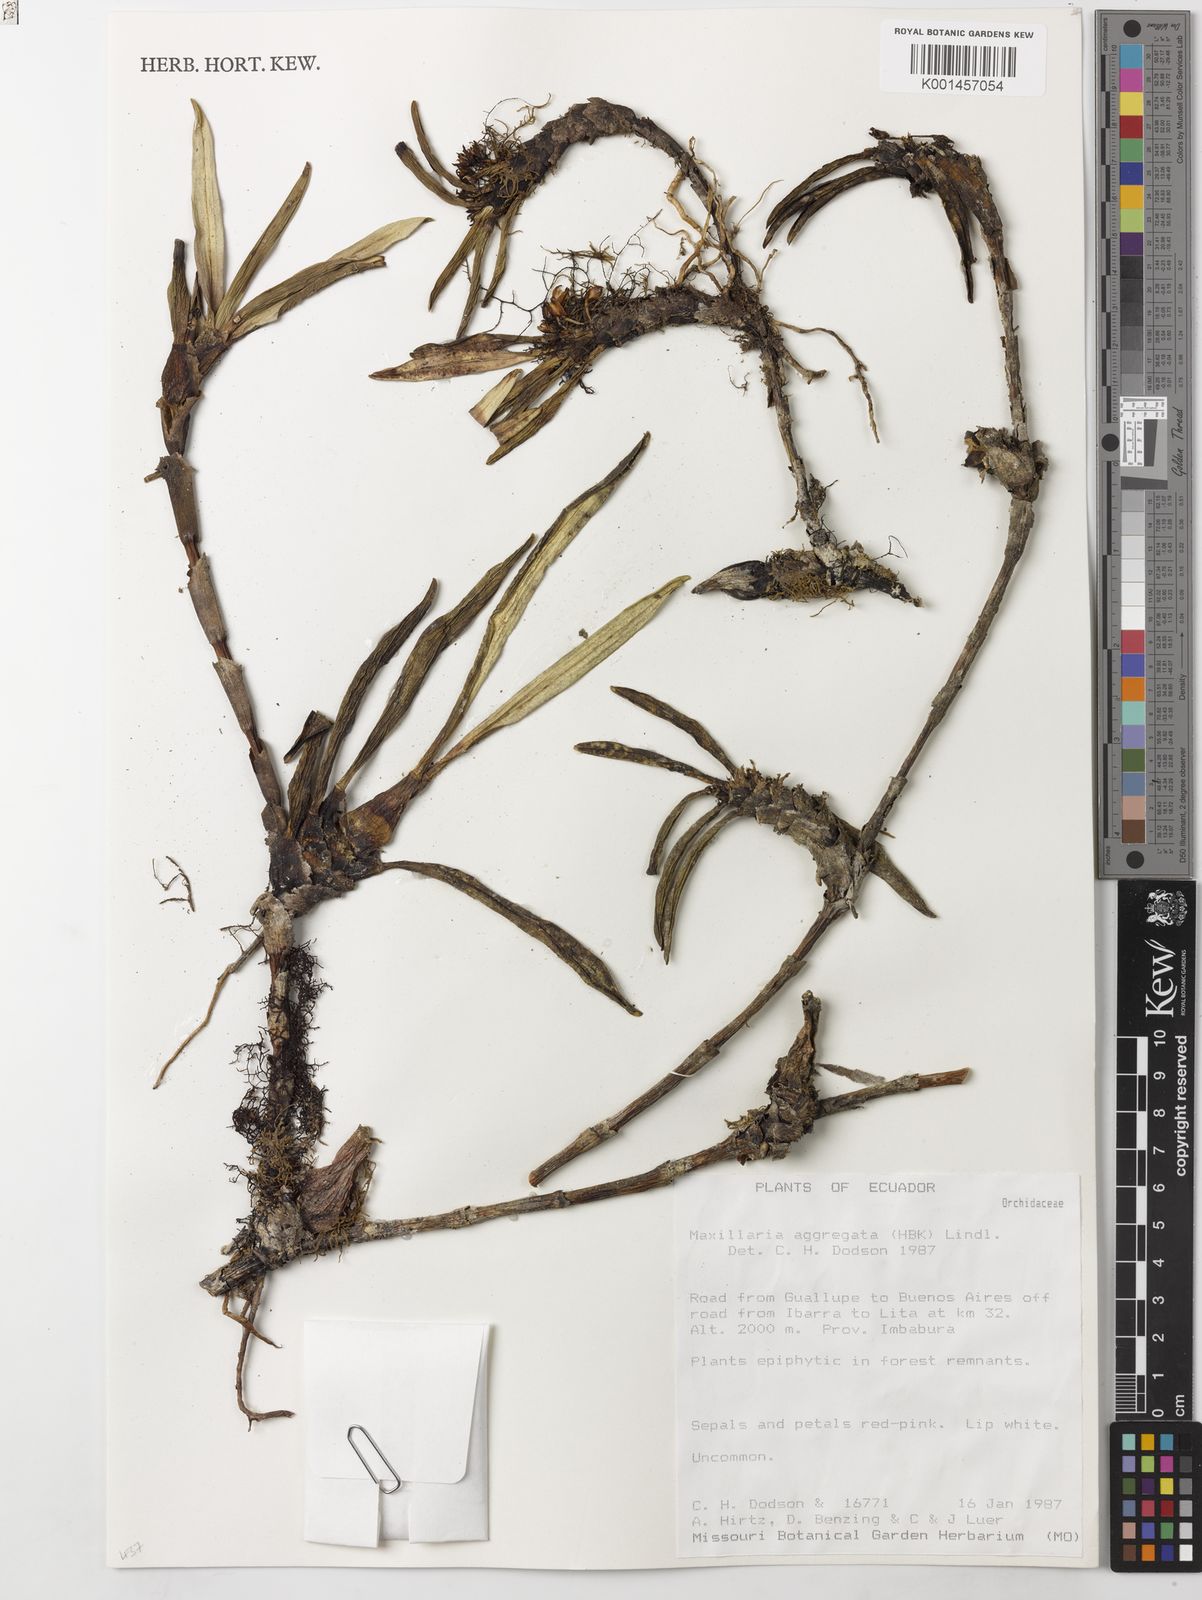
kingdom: Plantae
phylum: Tracheophyta
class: Liliopsida
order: Asparagales
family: Orchidaceae
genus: Maxillaria
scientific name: Maxillaria aggregata
